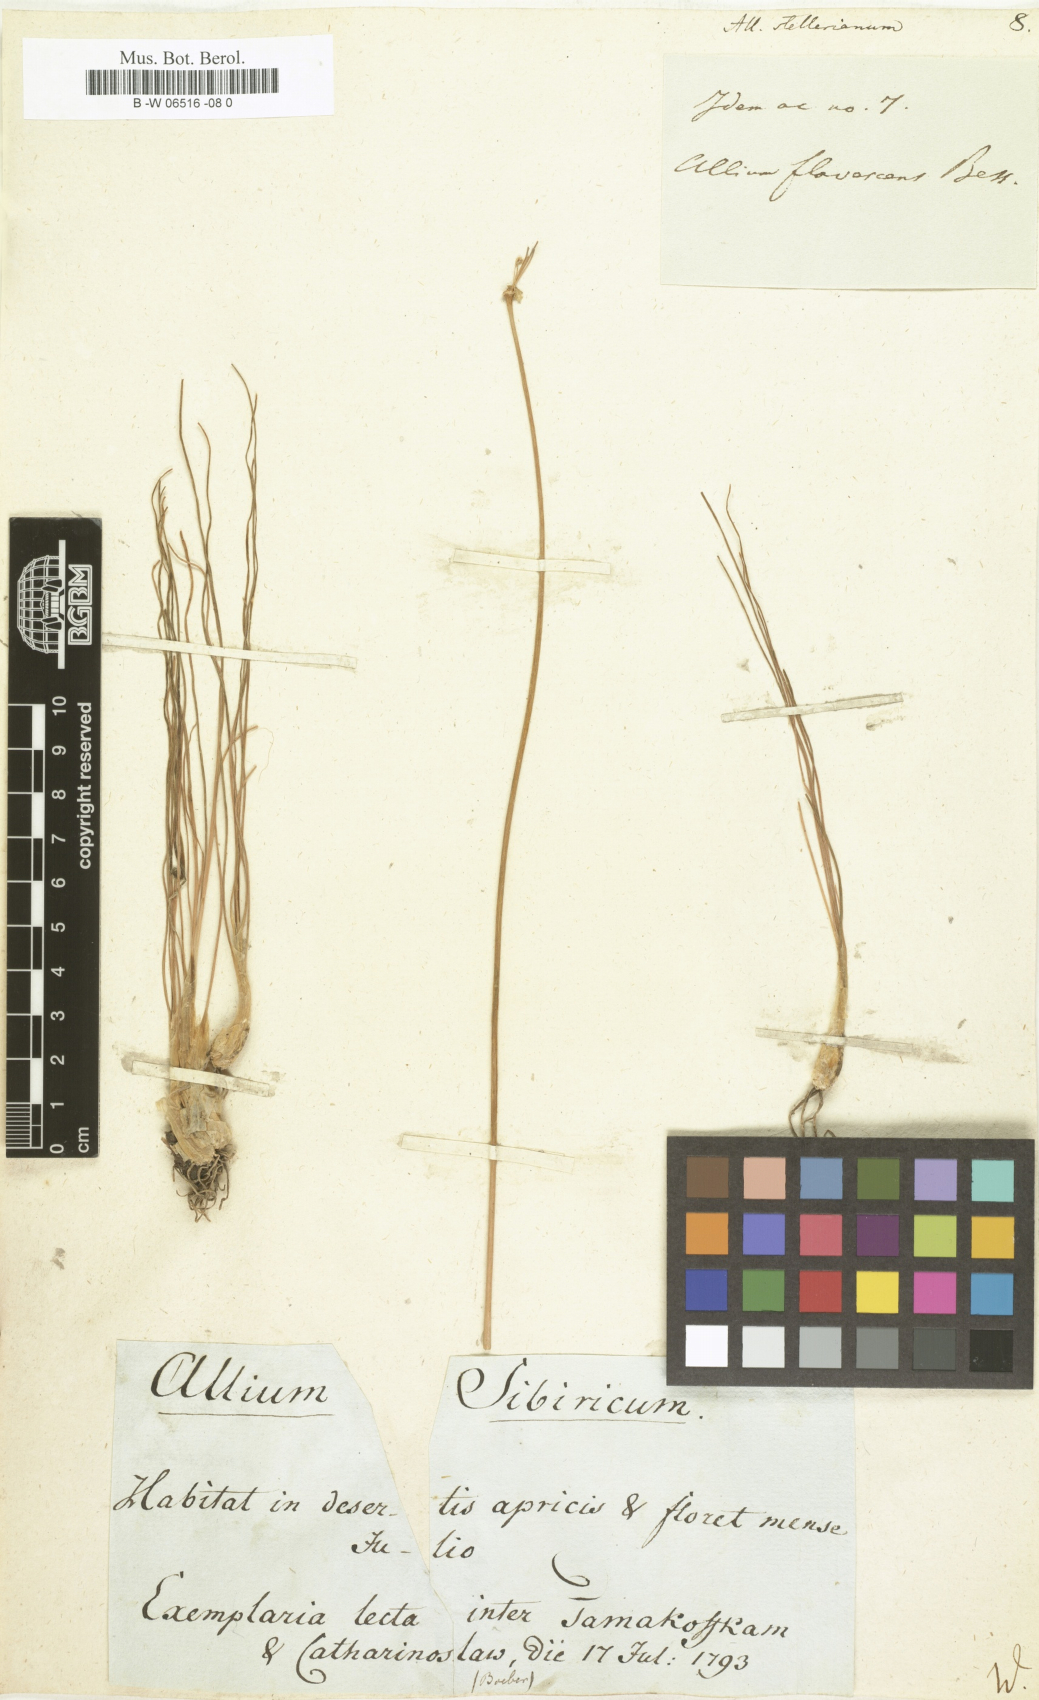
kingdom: Plantae
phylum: Tracheophyta
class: Liliopsida
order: Asparagales
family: Amaryllidaceae
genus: Allium
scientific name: Allium stellerianum
